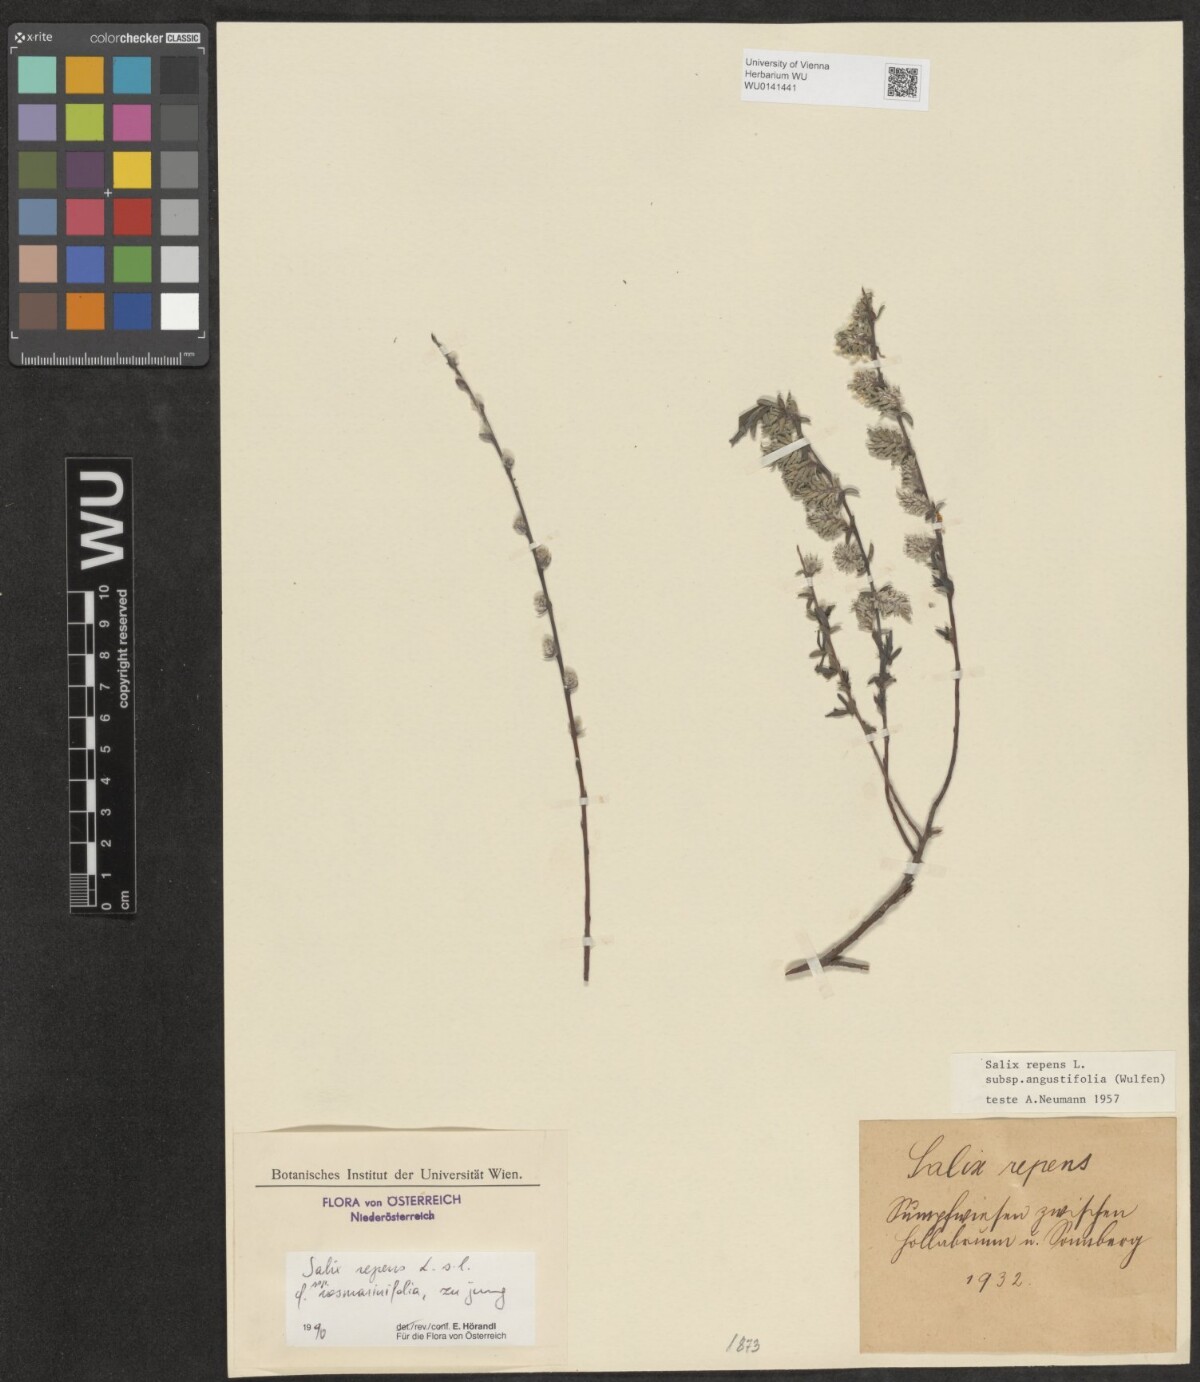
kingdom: Plantae
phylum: Tracheophyta
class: Magnoliopsida
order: Malpighiales
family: Salicaceae
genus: Salix
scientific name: Salix repens
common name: Creeping willow
